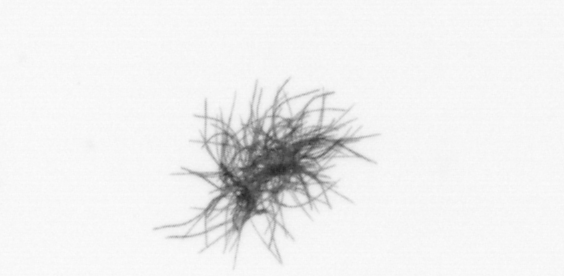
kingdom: Bacteria
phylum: Cyanobacteria
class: Cyanobacteriia
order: Cyanobacteriales
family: Microcoleaceae
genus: Trichodesmium
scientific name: Trichodesmium
